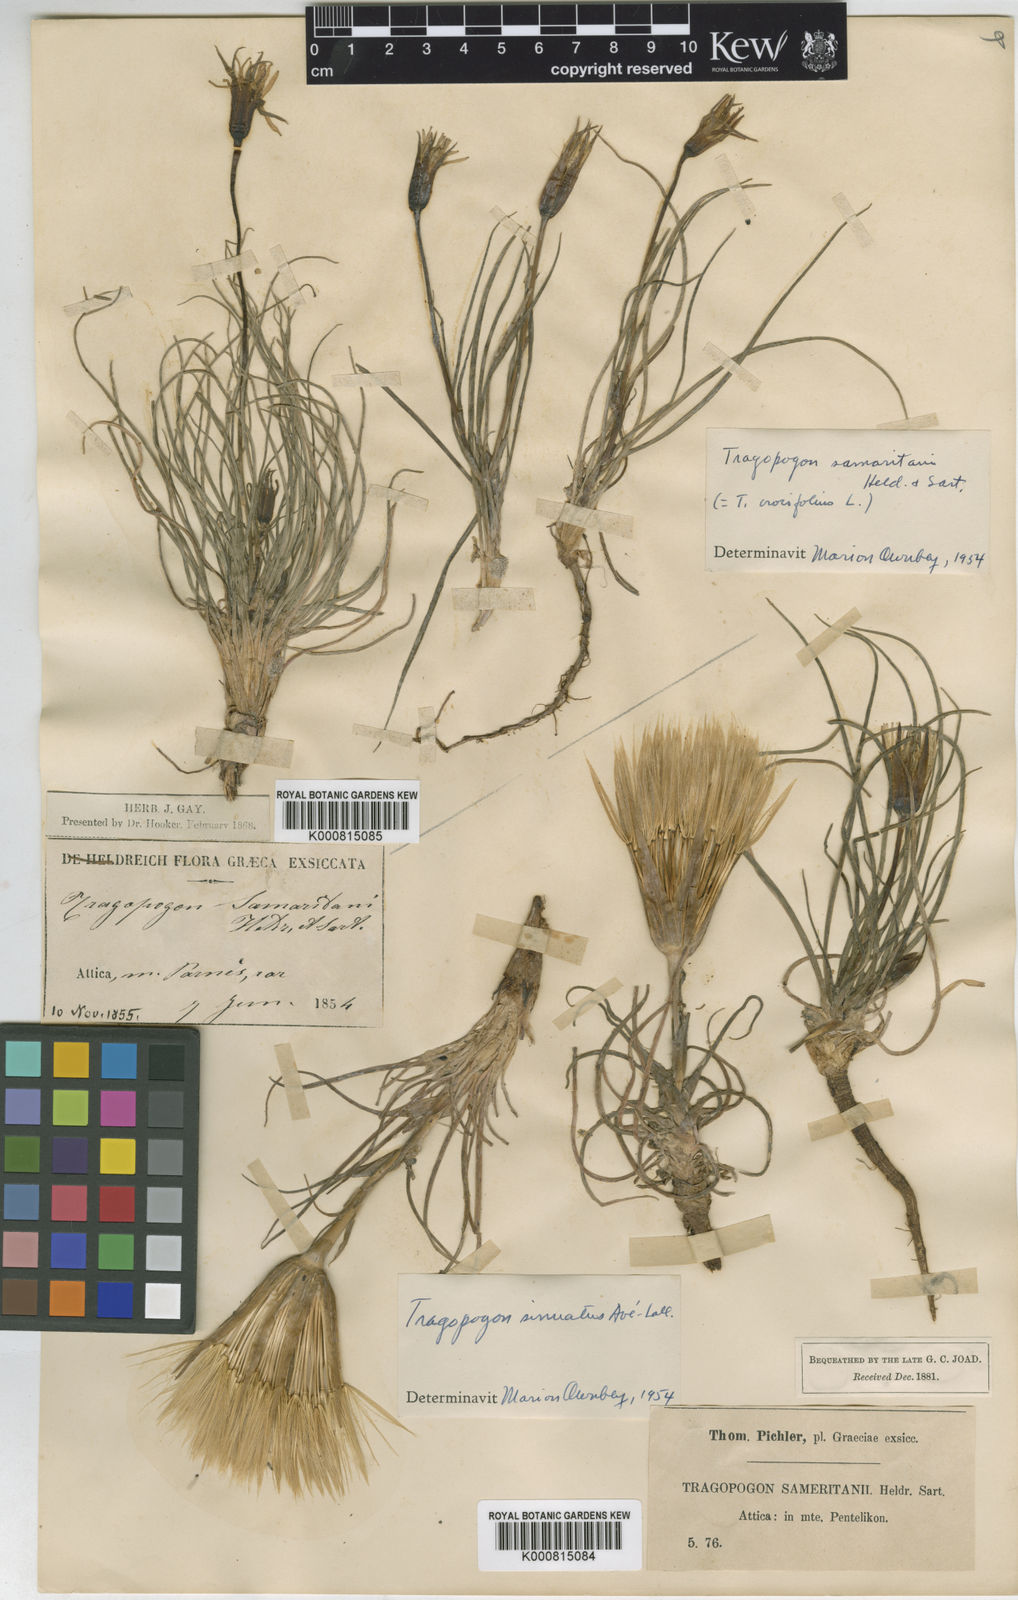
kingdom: Plantae
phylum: Tracheophyta
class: Magnoliopsida
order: Asterales
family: Asteraceae
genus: Tragopogon
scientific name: Tragopogon samaritani
